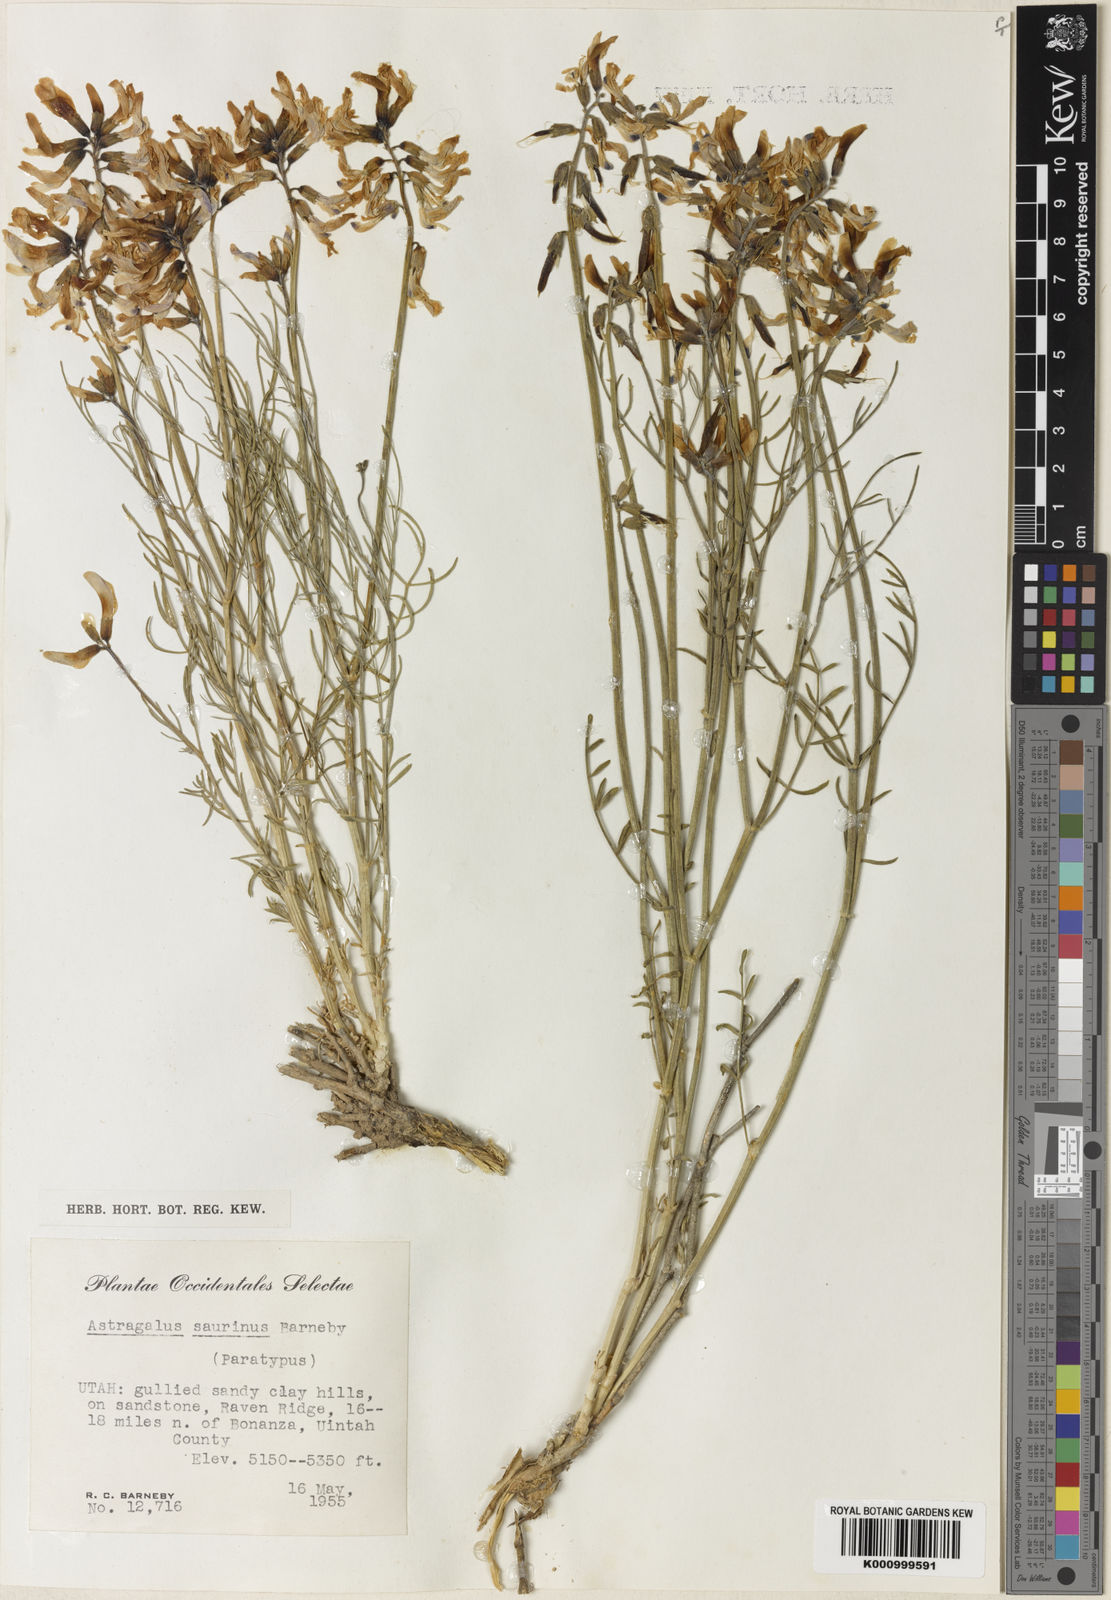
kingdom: Plantae
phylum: Tracheophyta
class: Magnoliopsida
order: Fabales
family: Fabaceae
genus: Astragalus
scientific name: Astragalus saurinus
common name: Dinosaur milk-vetch
